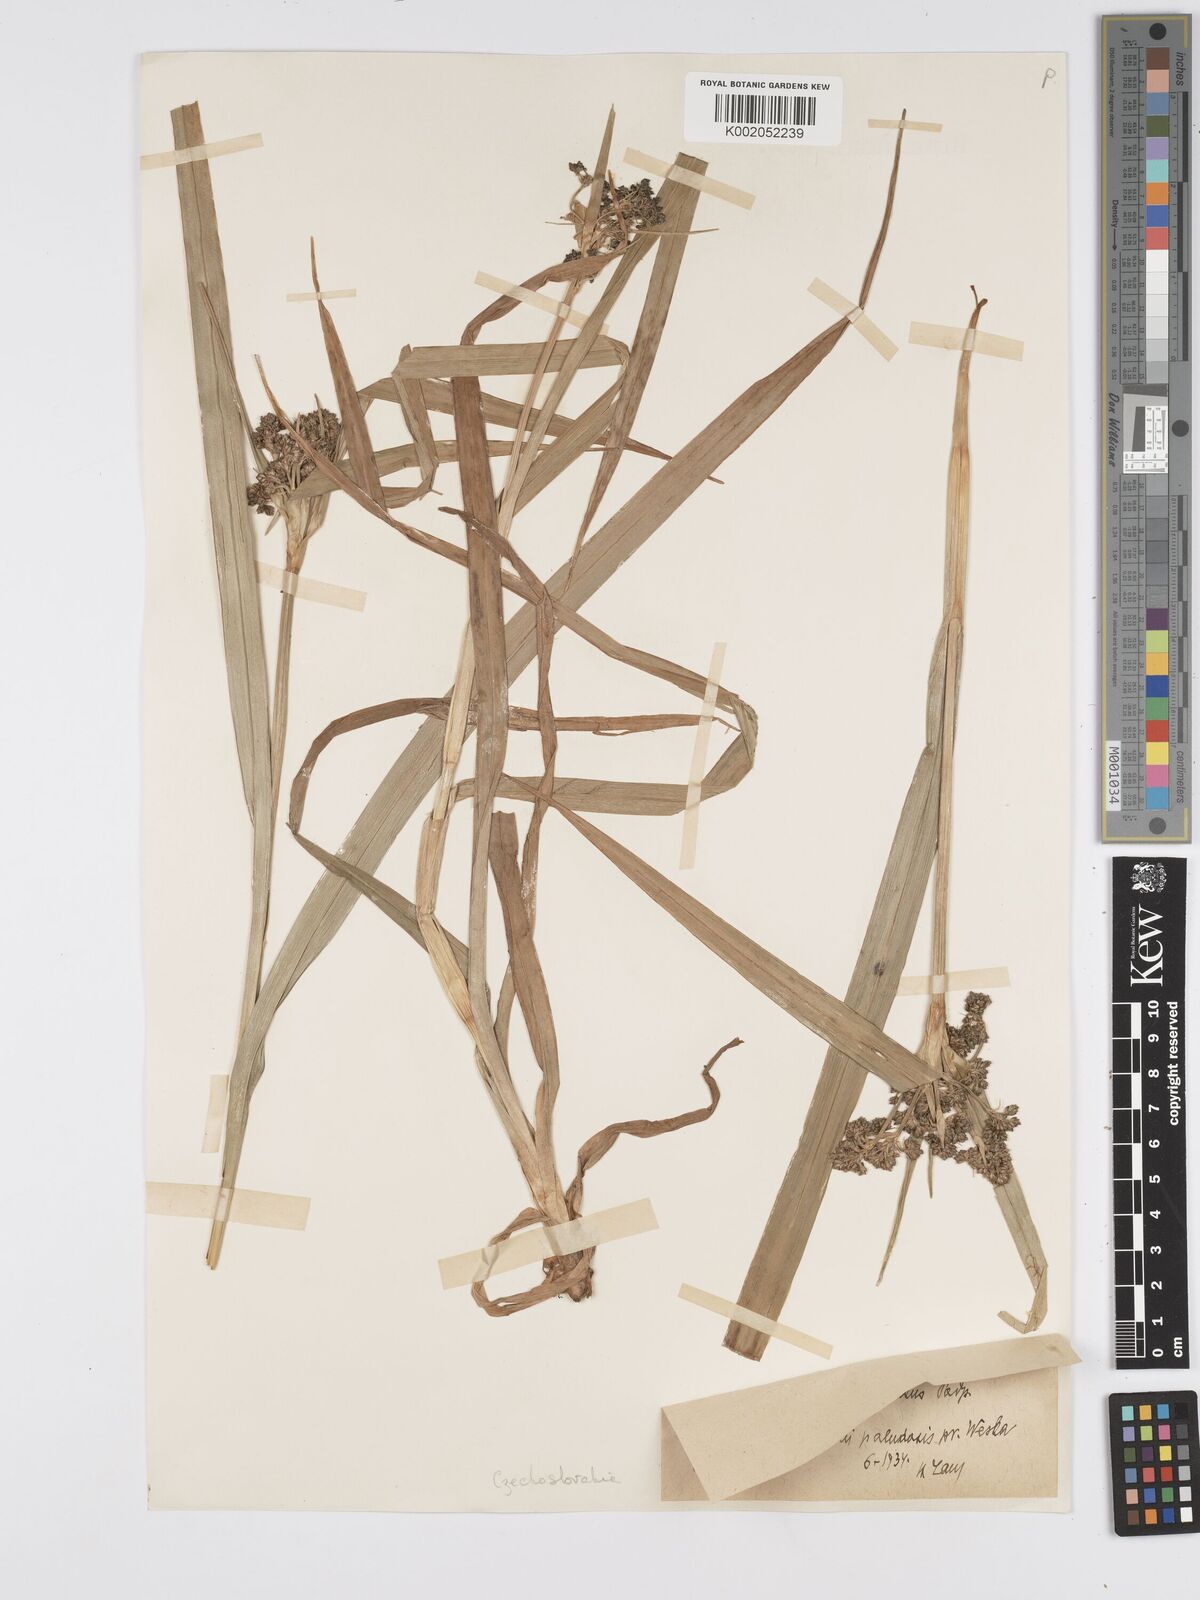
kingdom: Plantae
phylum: Tracheophyta
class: Liliopsida
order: Poales
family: Cyperaceae
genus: Scirpus
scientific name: Scirpus sylvaticus
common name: Wood club-rush
